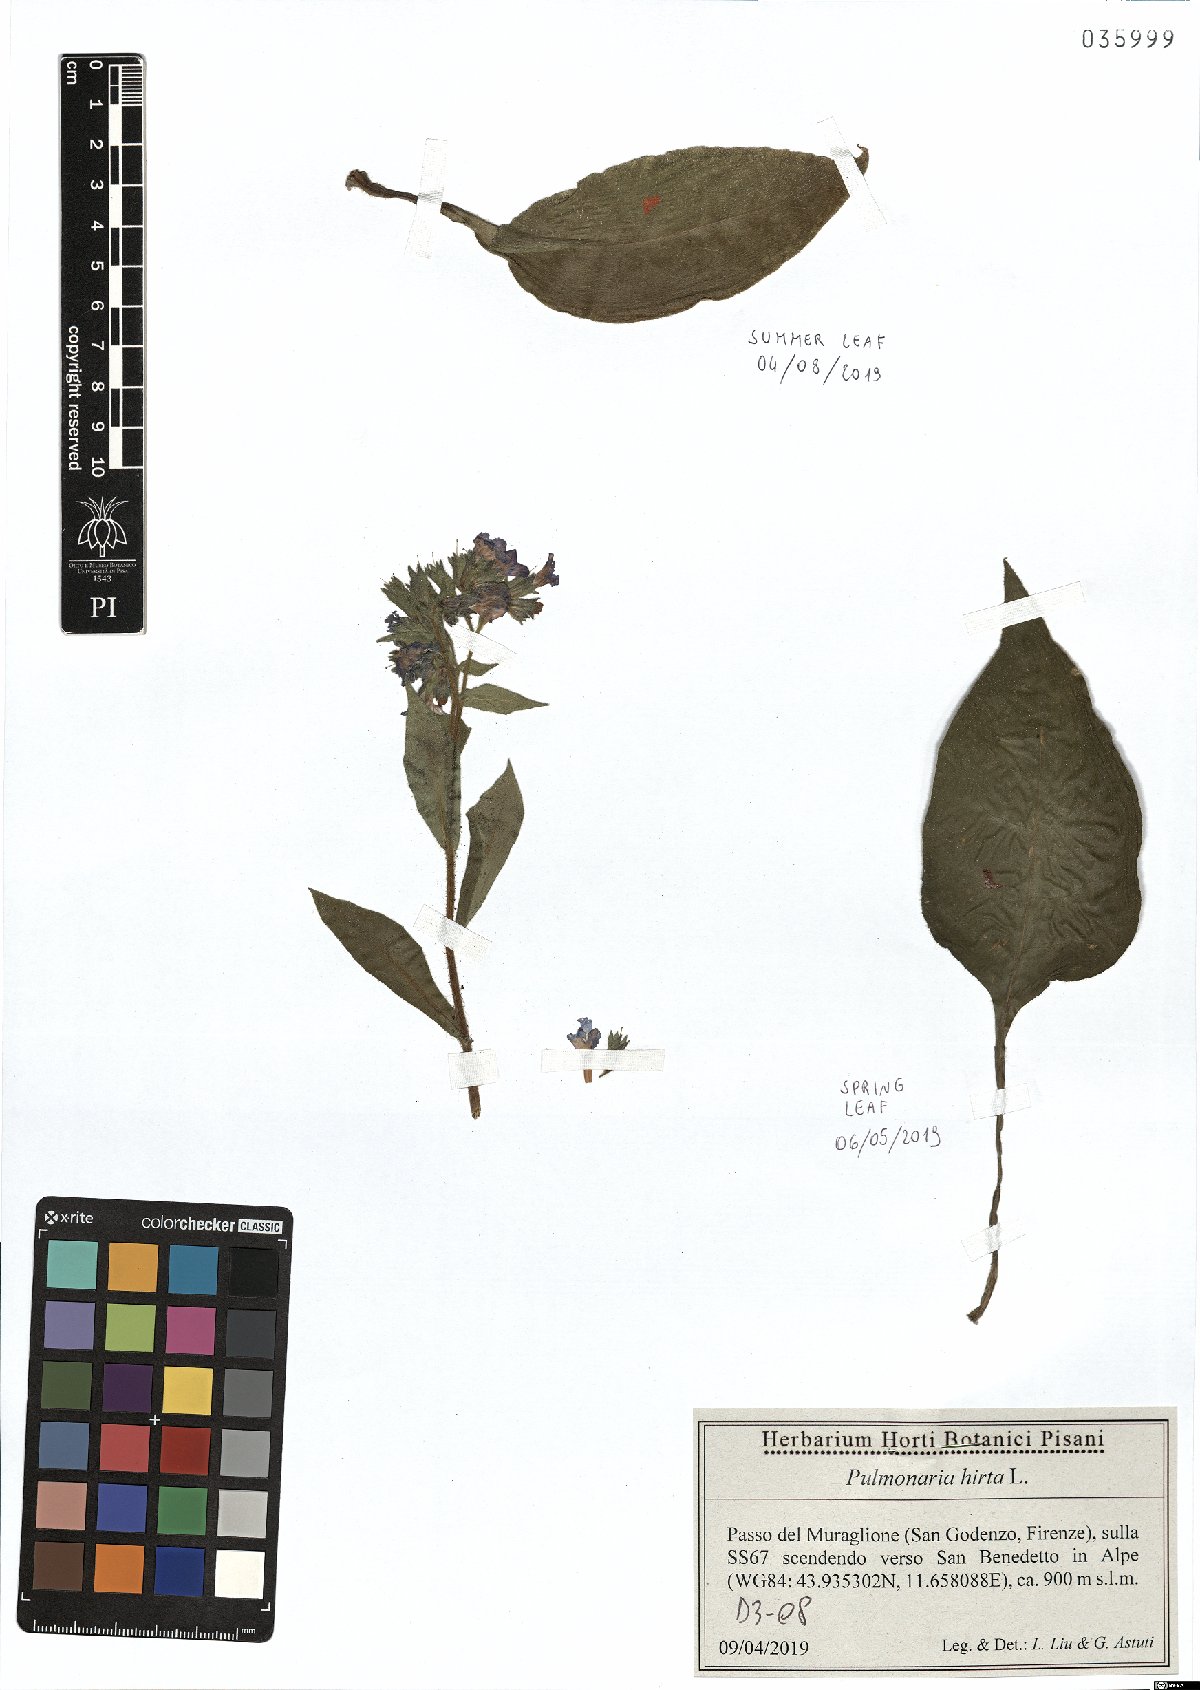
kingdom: Plantae
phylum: Tracheophyta
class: Magnoliopsida
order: Boraginales
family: Boraginaceae
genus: Pulmonaria
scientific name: Pulmonaria hirta
